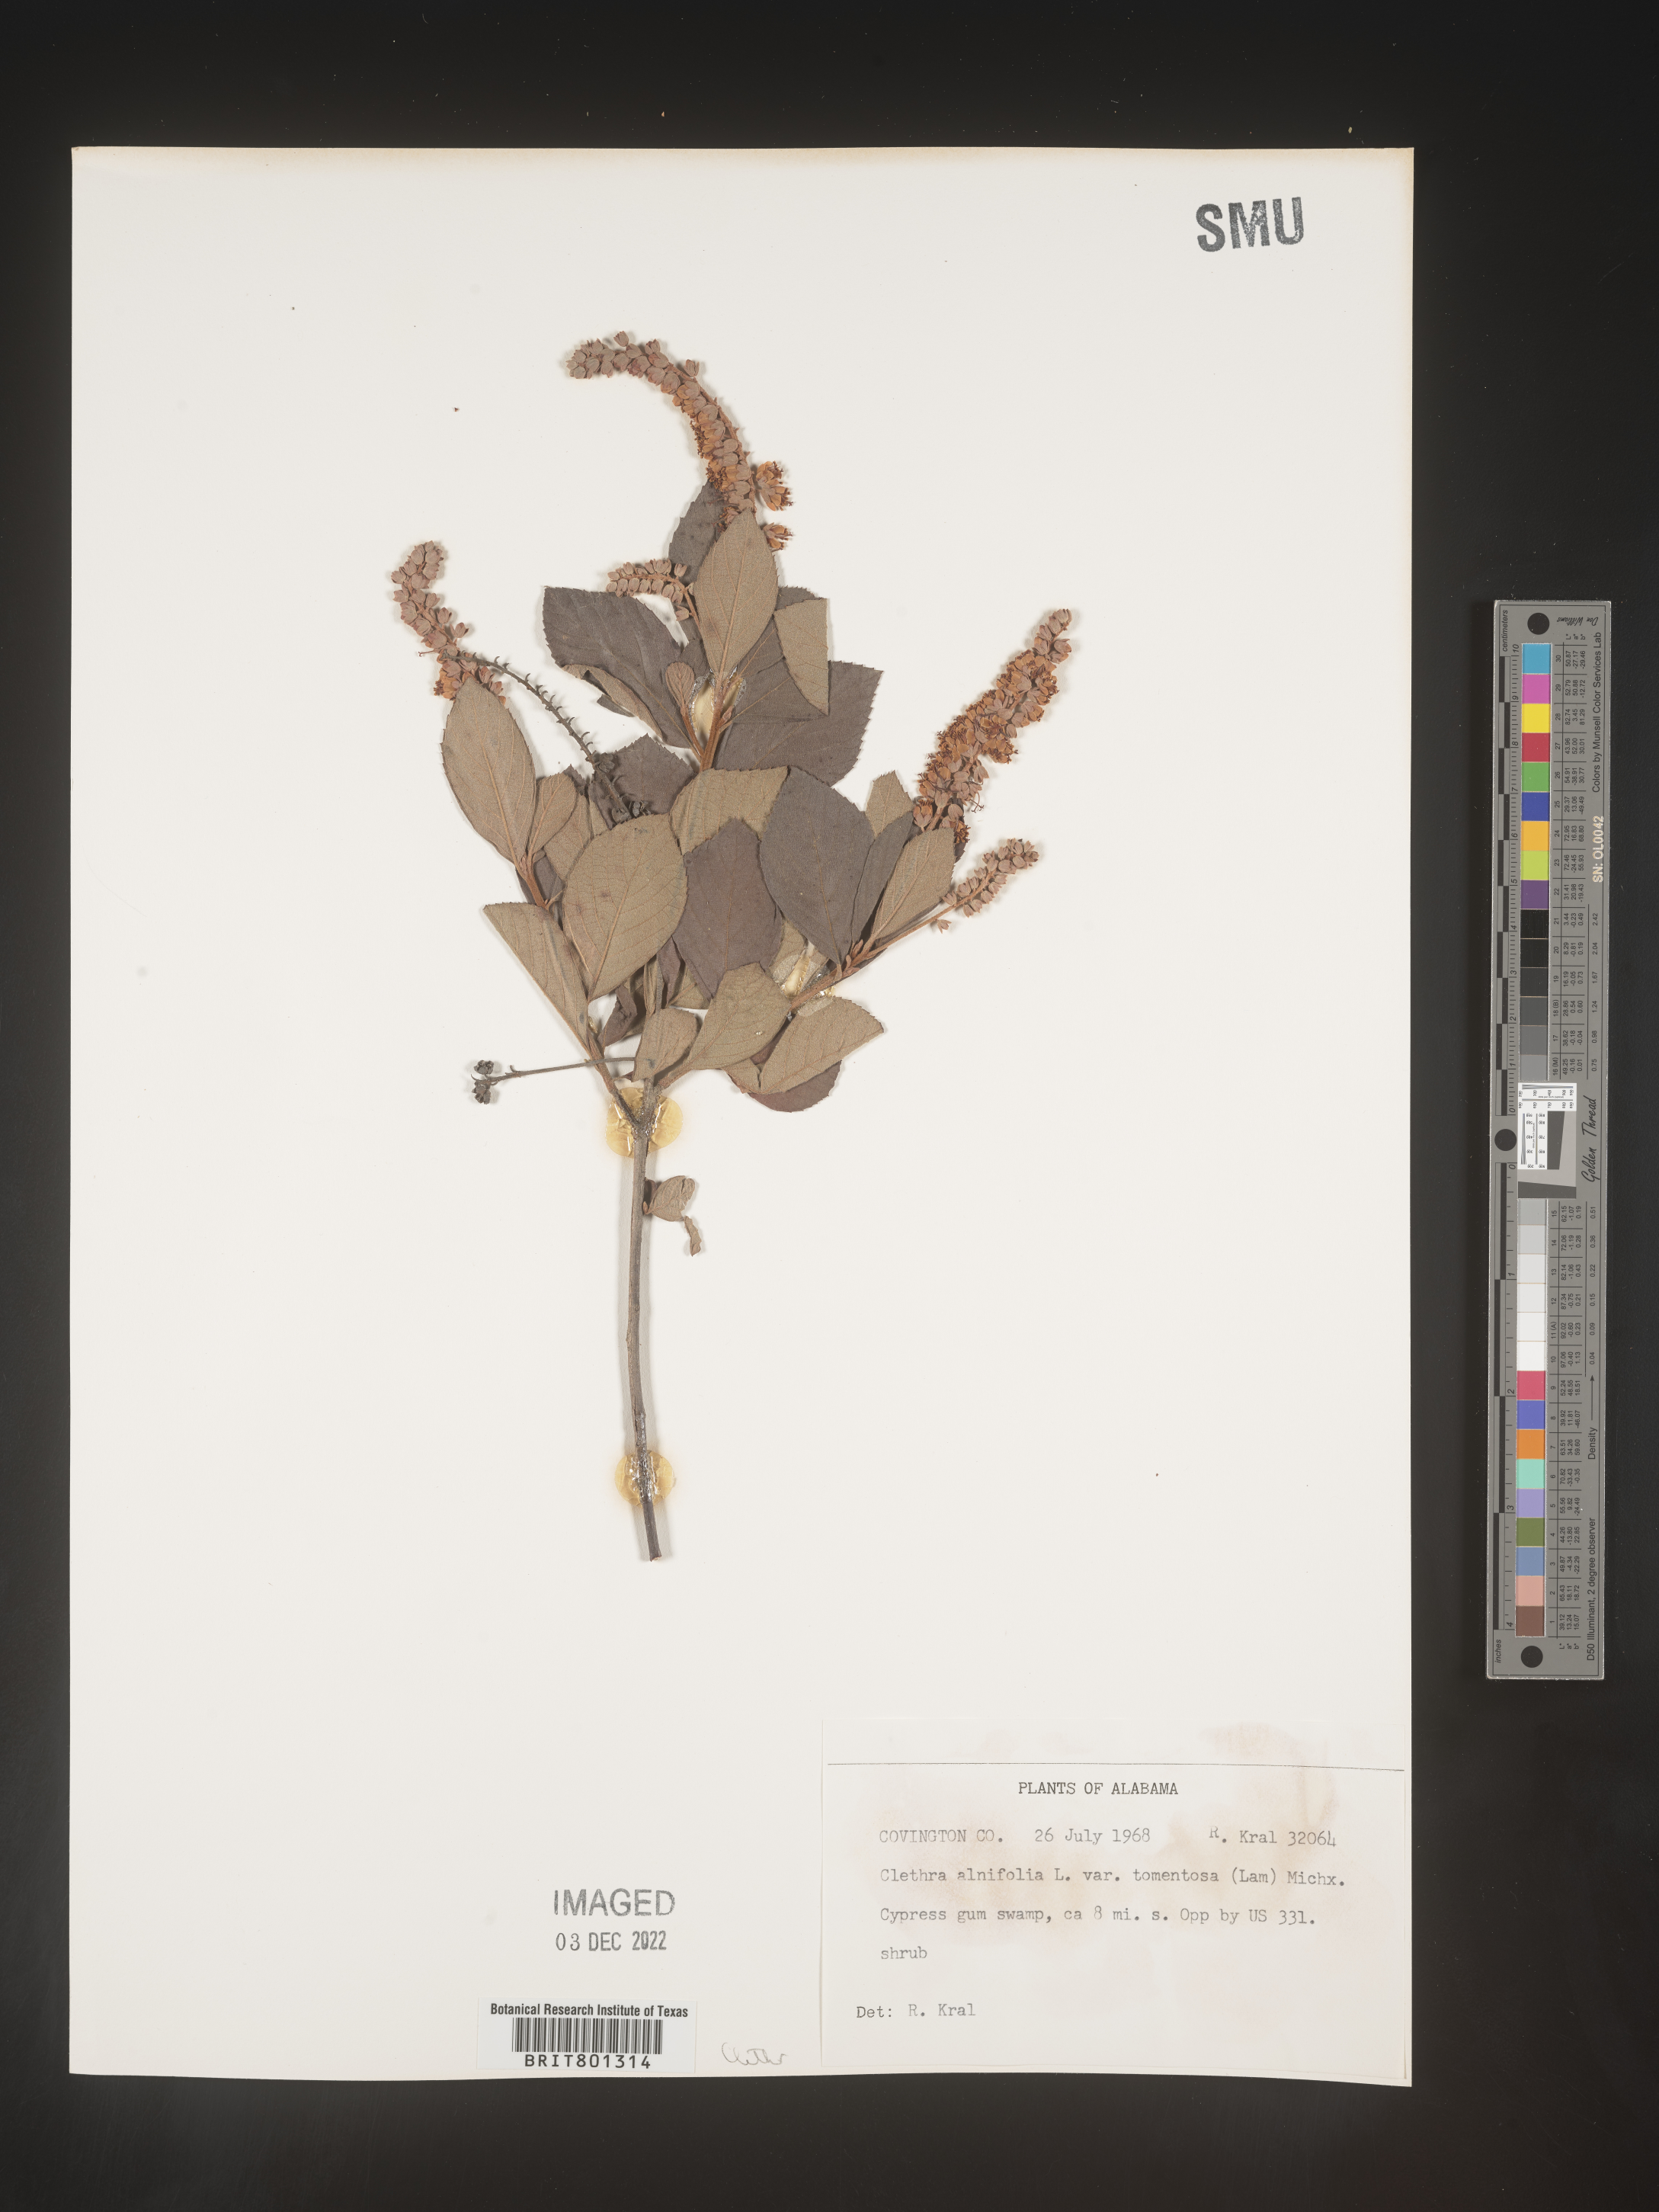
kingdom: Plantae
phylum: Tracheophyta
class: Magnoliopsida
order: Ericales
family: Clethraceae
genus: Clethra
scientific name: Clethra alnifolia
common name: Sweet pepperbush
